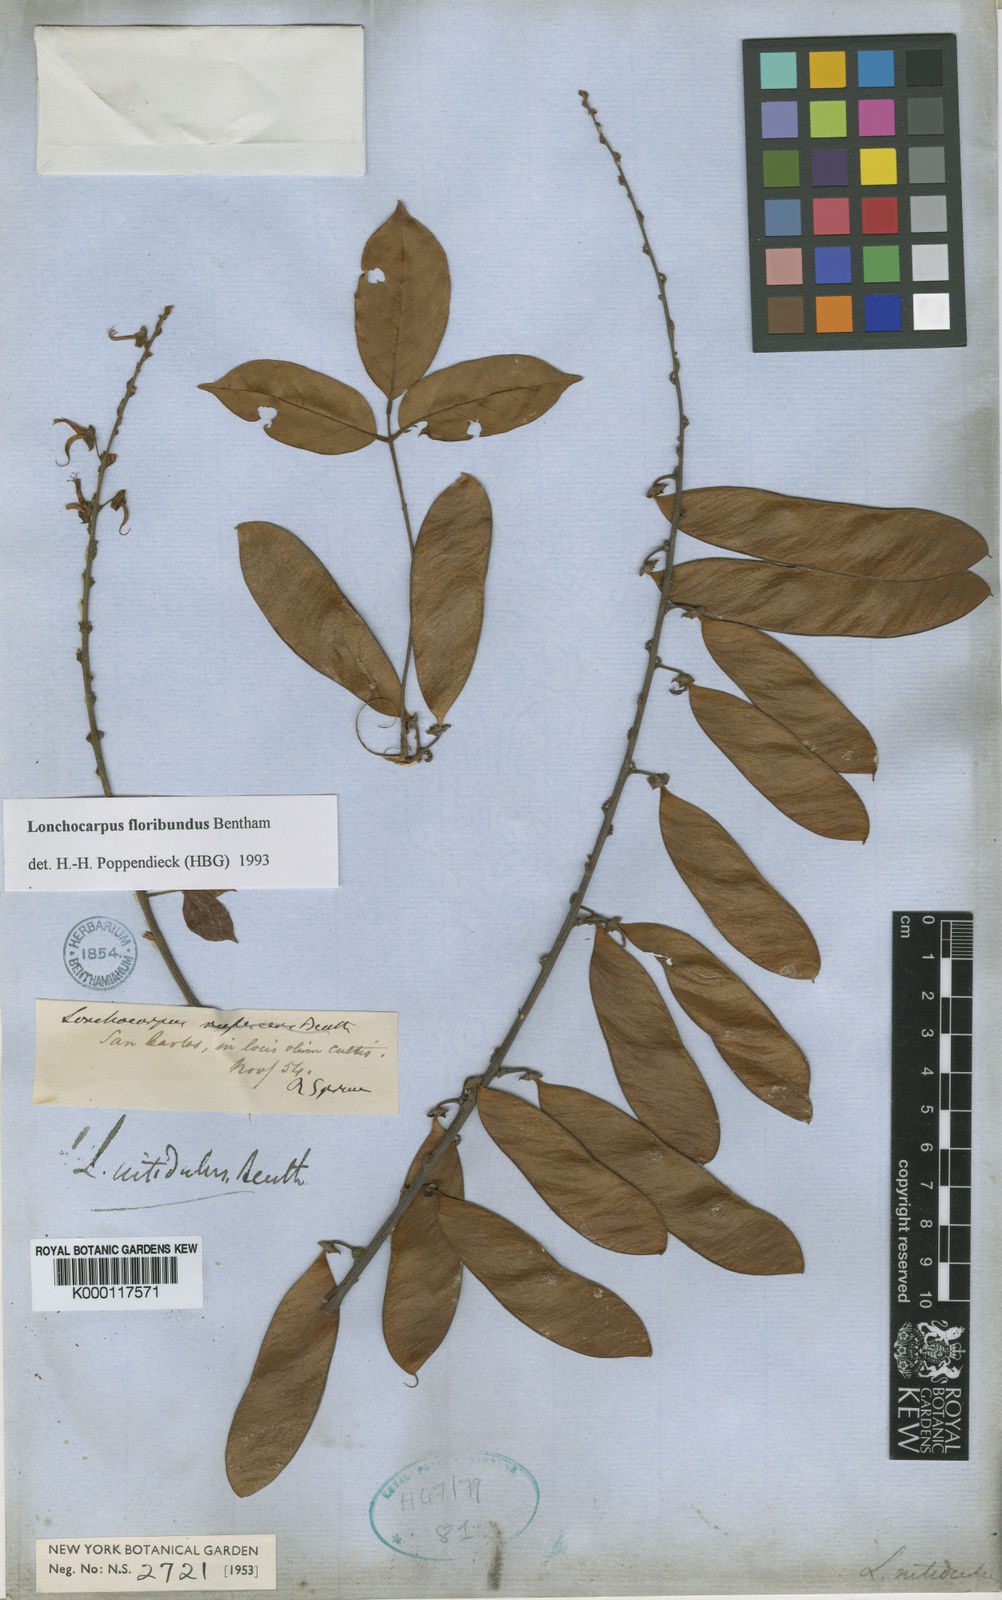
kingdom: Plantae
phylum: Tracheophyta
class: Magnoliopsida
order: Fabales
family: Fabaceae
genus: Deguelia
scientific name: Deguelia nitidula
